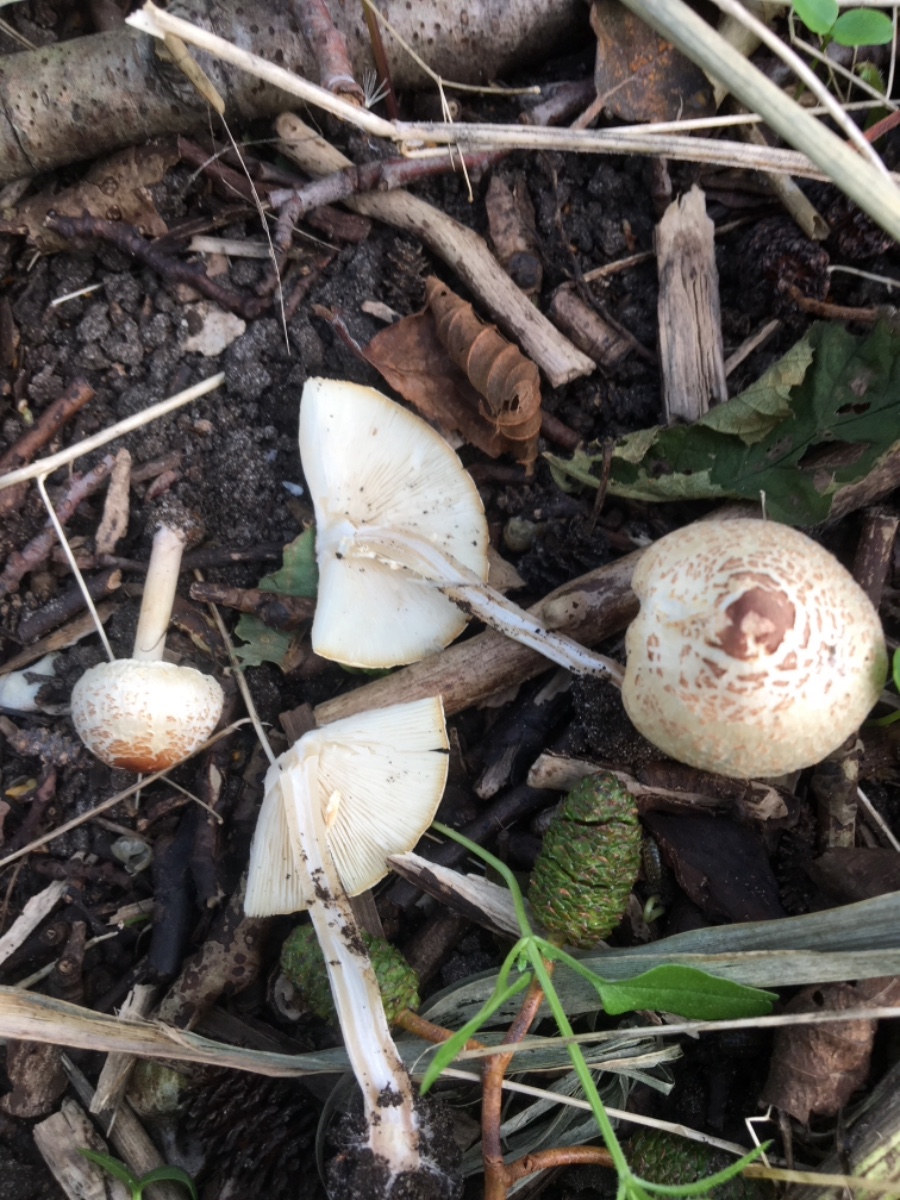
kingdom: Fungi
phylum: Basidiomycota
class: Agaricomycetes
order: Agaricales
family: Agaricaceae
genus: Lepiota
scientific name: Lepiota cristata
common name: stinkende parasolhat
